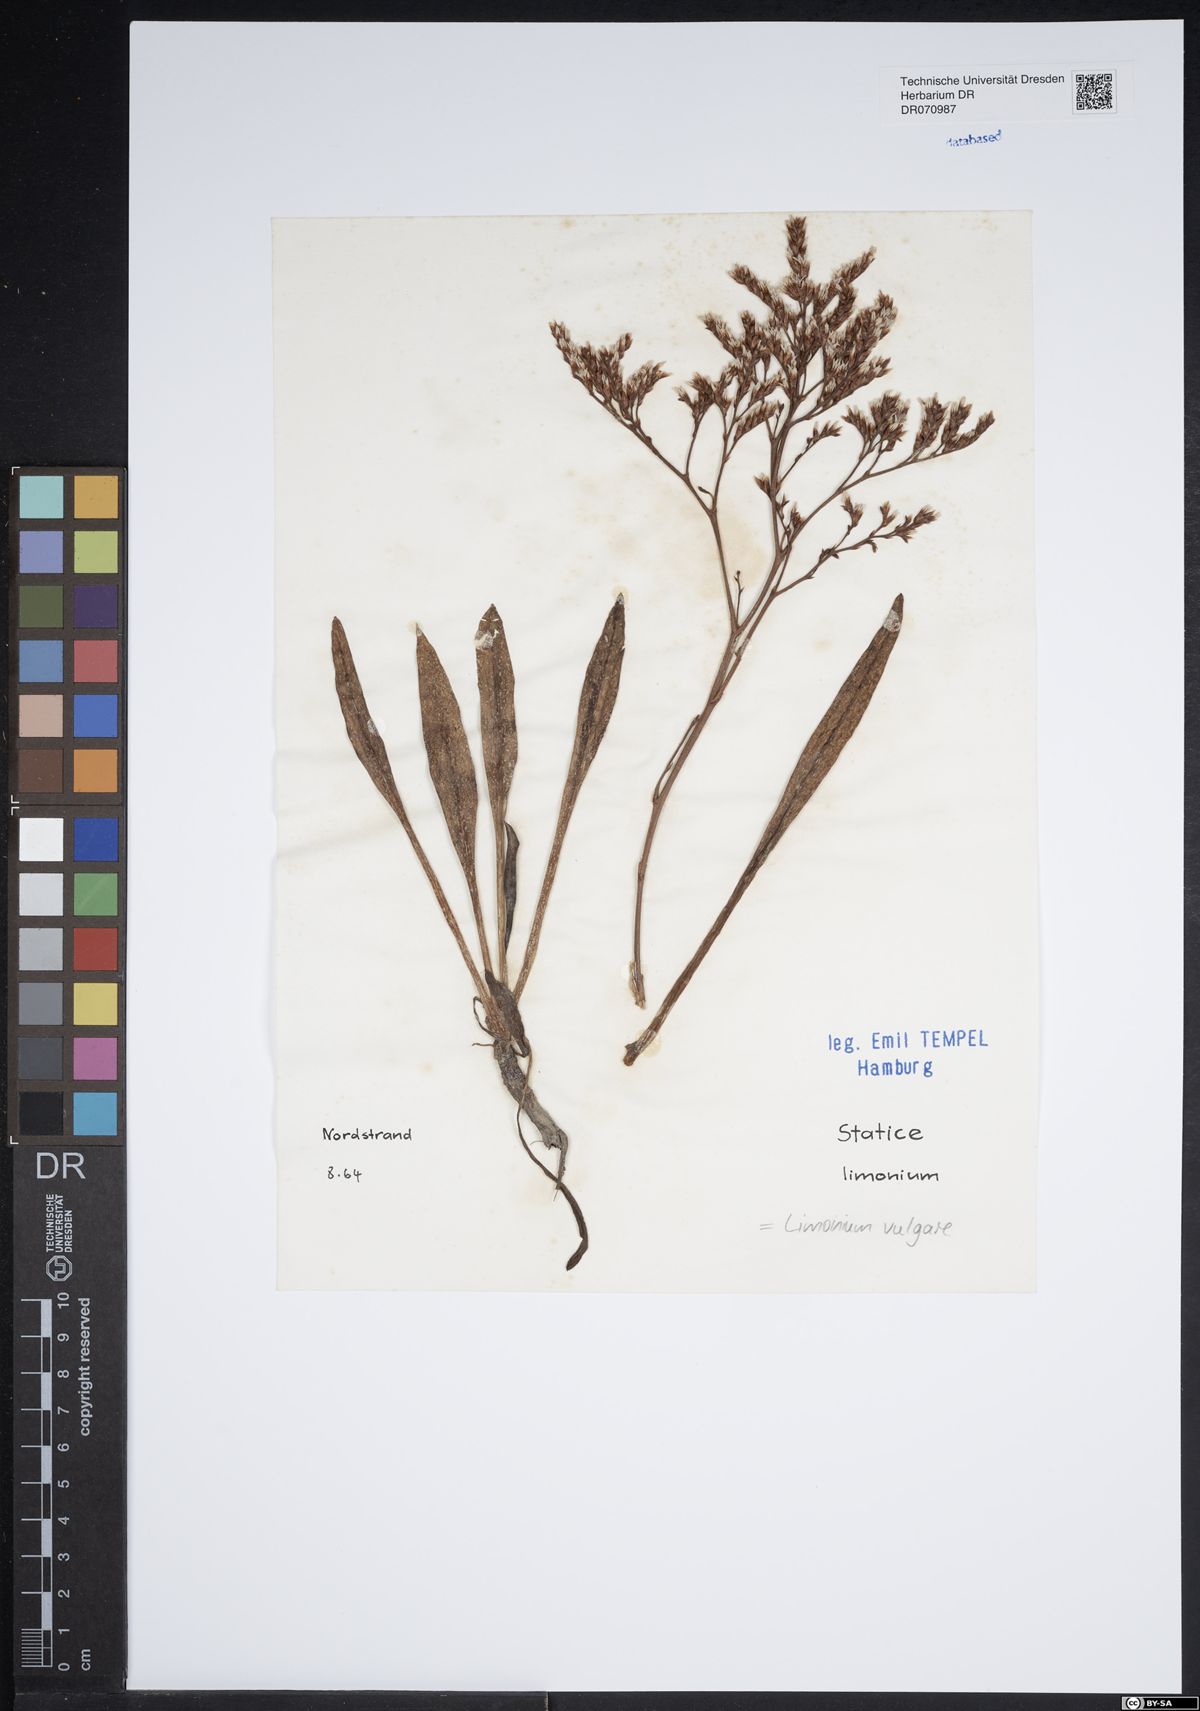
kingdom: Plantae
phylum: Tracheophyta
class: Magnoliopsida
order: Caryophyllales
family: Plumbaginaceae
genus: Limonium
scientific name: Limonium vulgare
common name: Common sea-lavender
